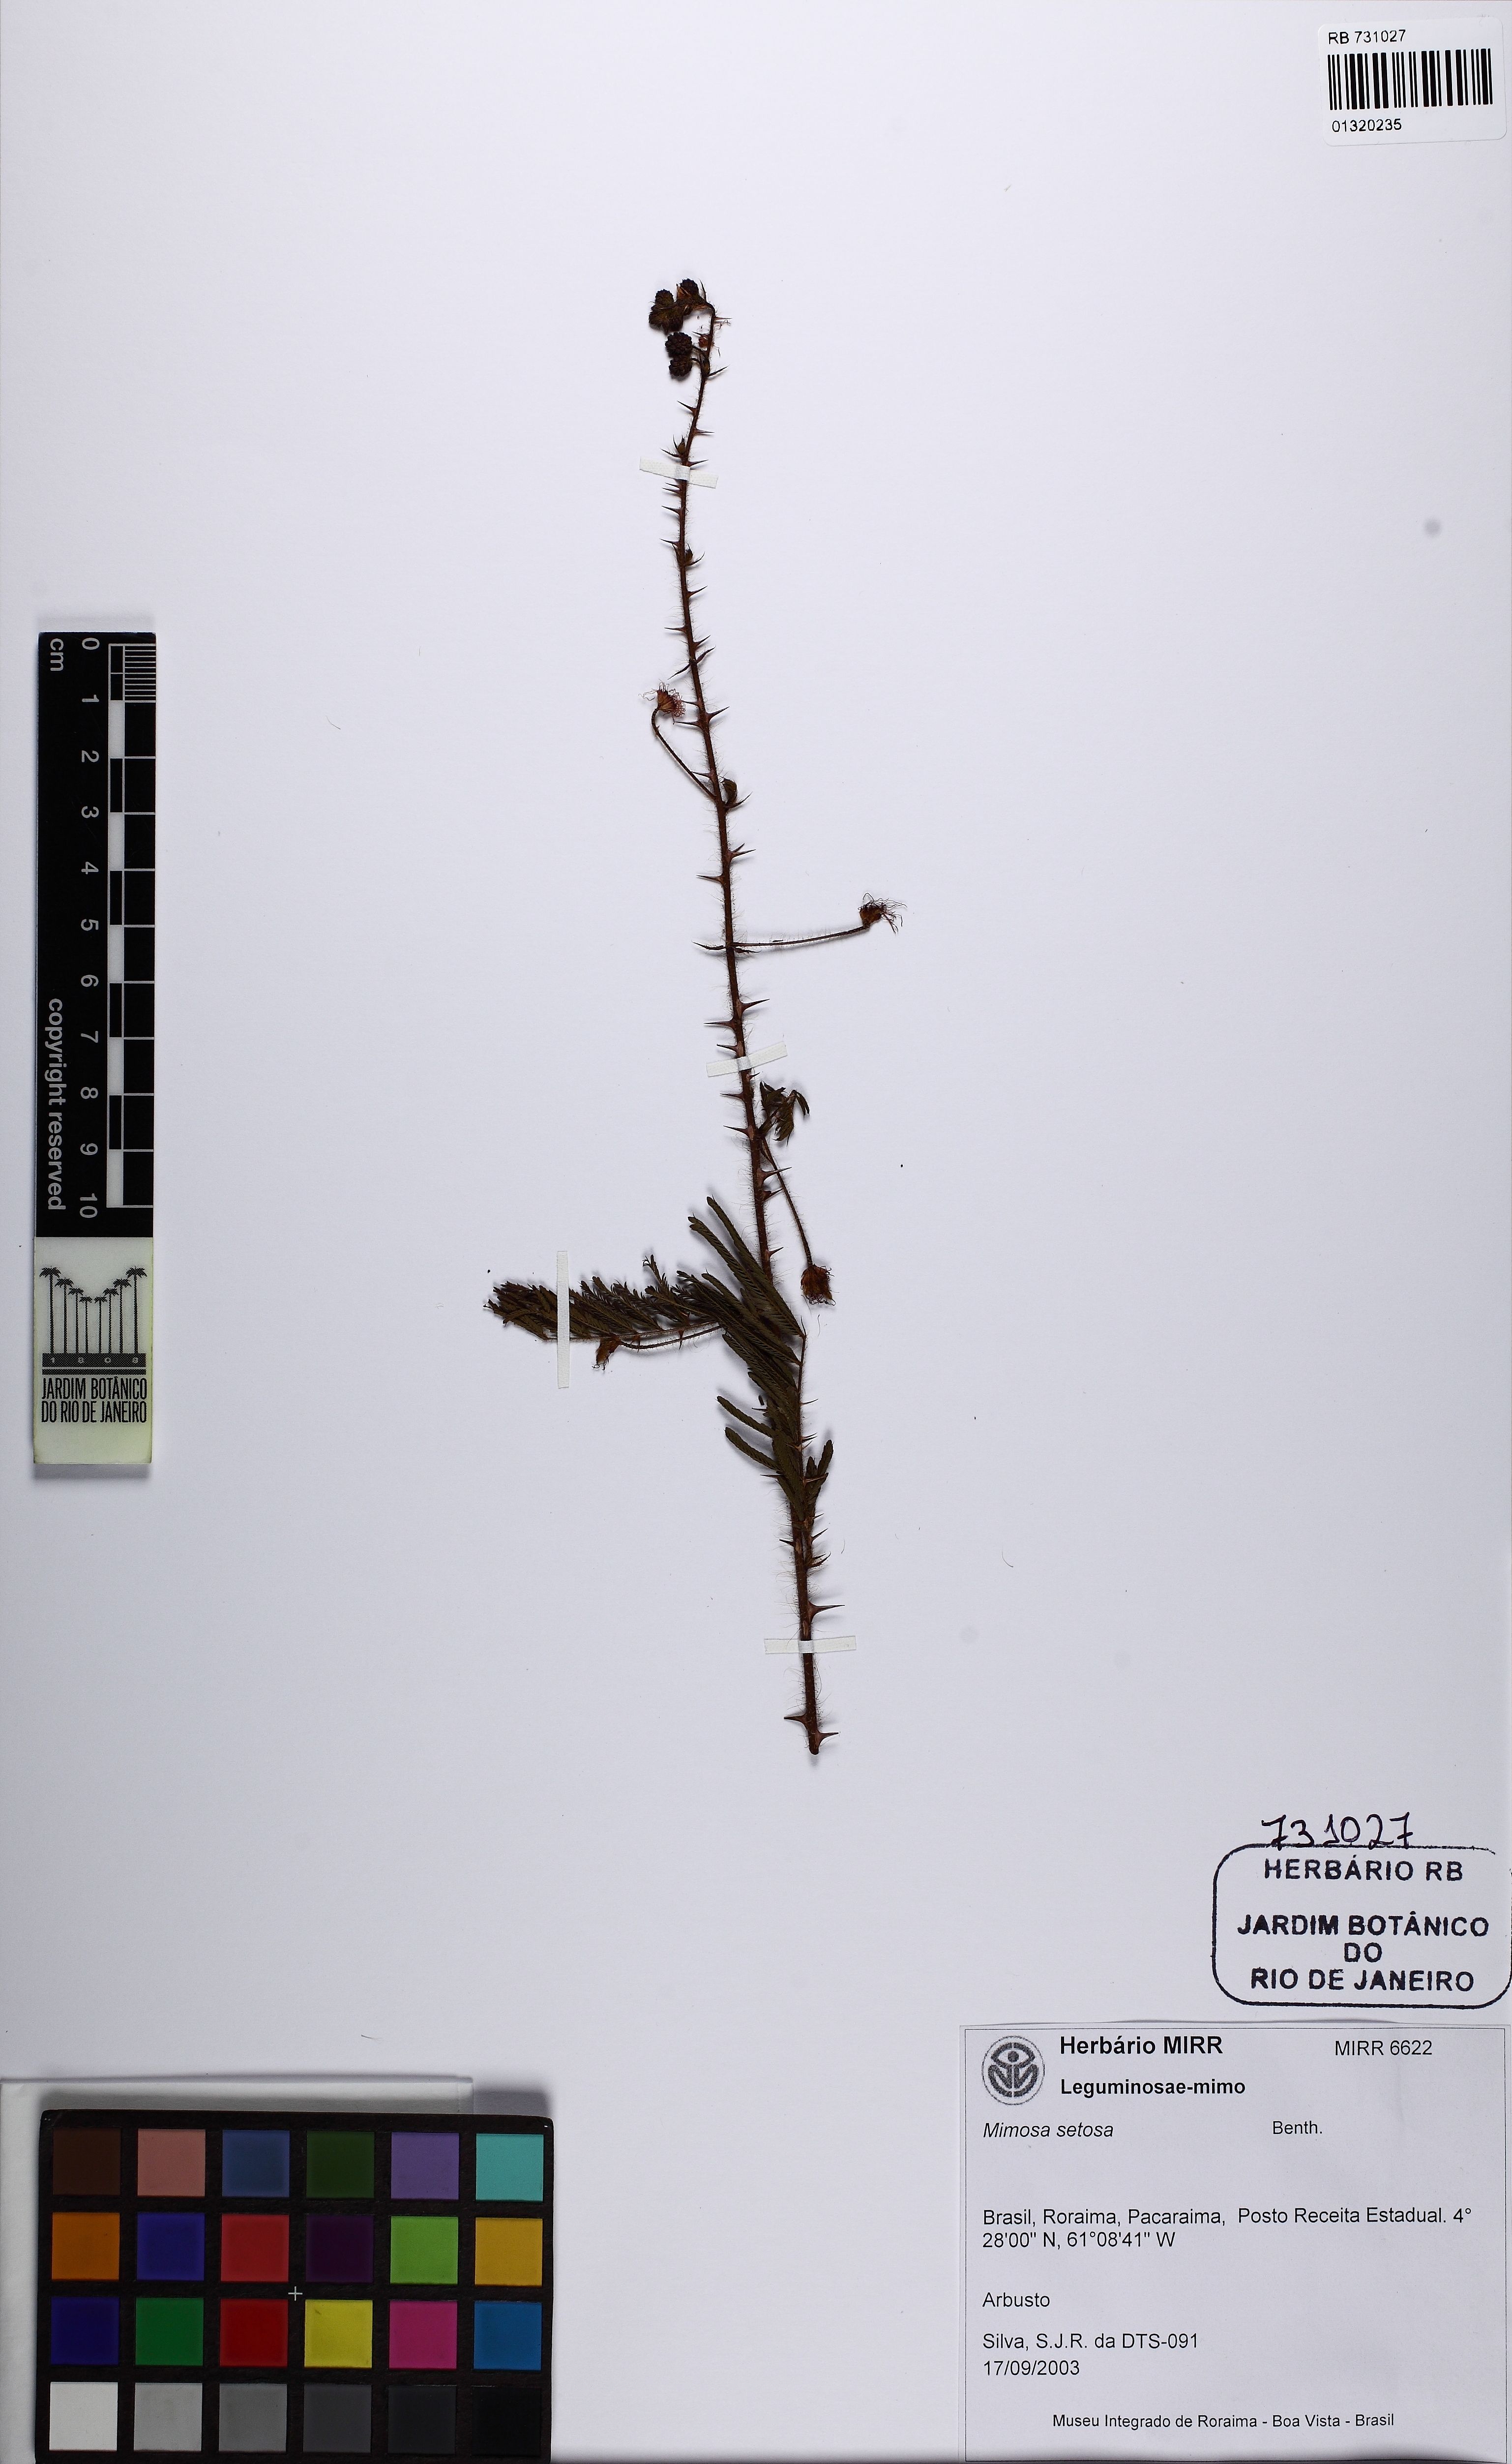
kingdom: Plantae
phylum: Tracheophyta
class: Magnoliopsida
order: Fabales
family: Fabaceae
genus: Mimosa
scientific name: Mimosa setosa
